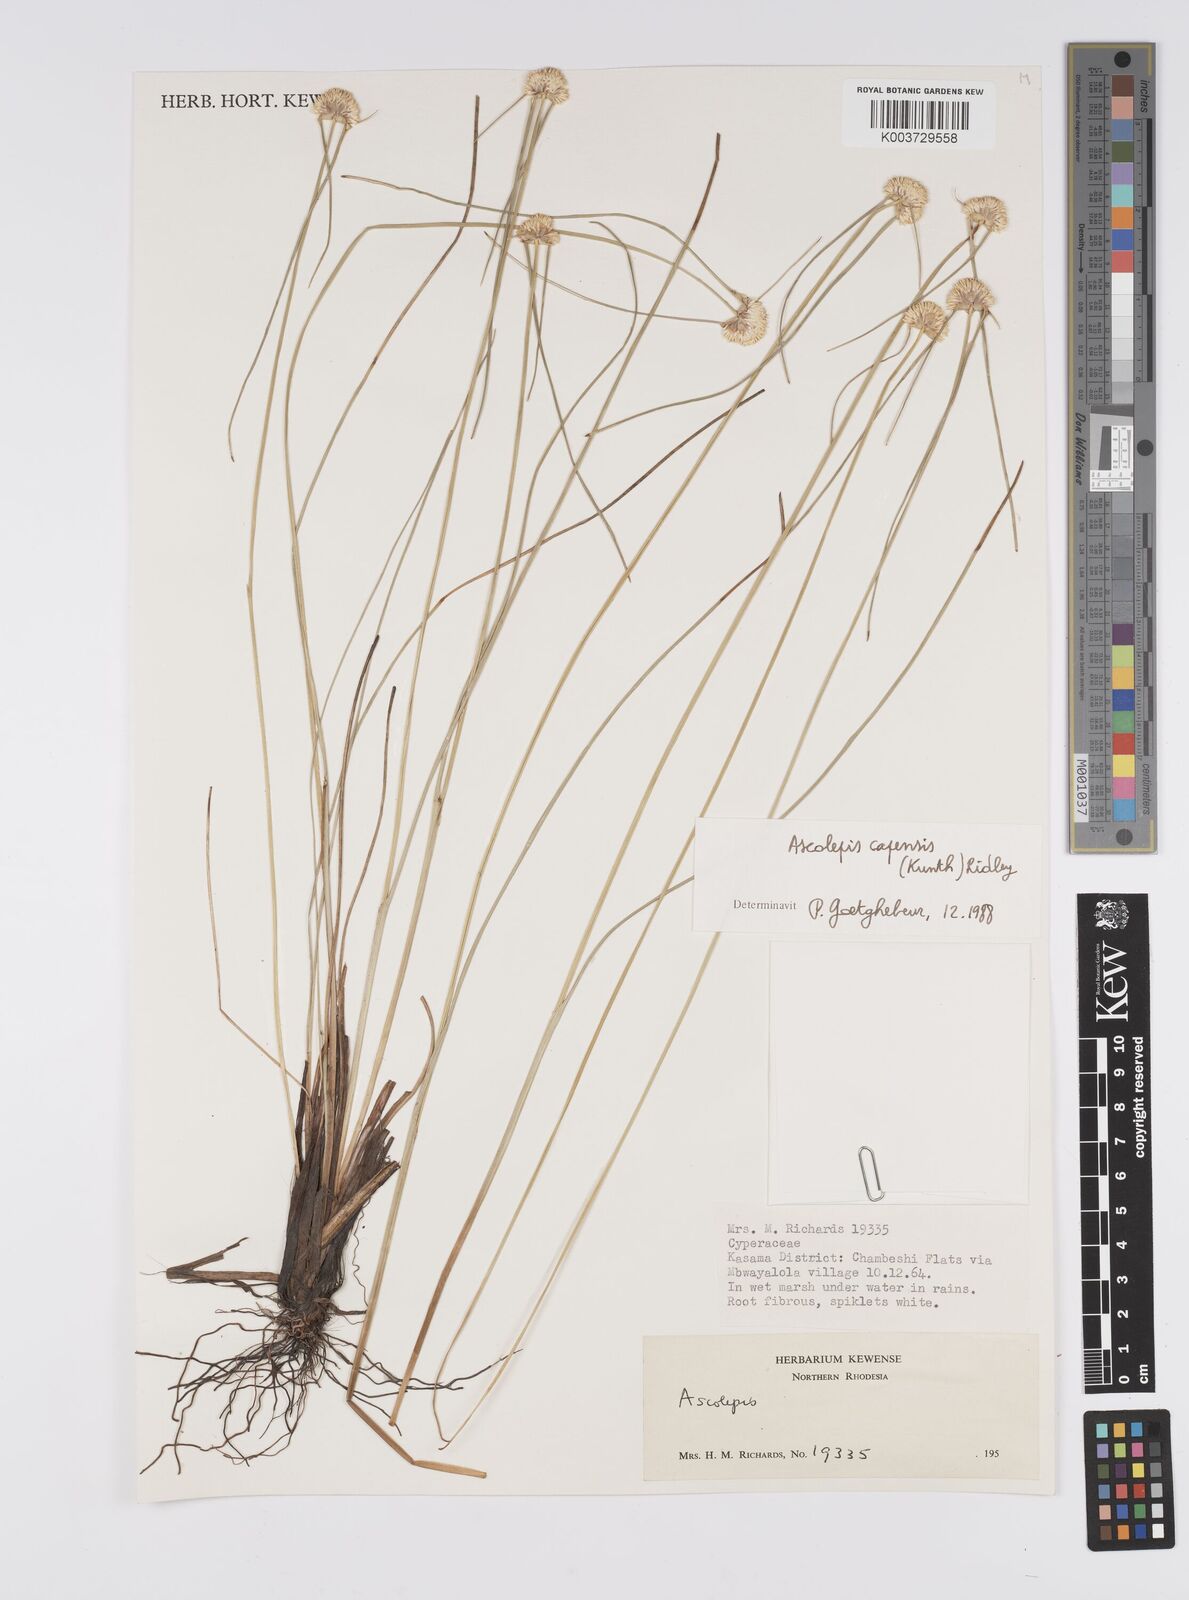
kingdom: Plantae
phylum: Tracheophyta
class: Liliopsida
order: Poales
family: Cyperaceae
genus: Cyperus
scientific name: Cyperus
